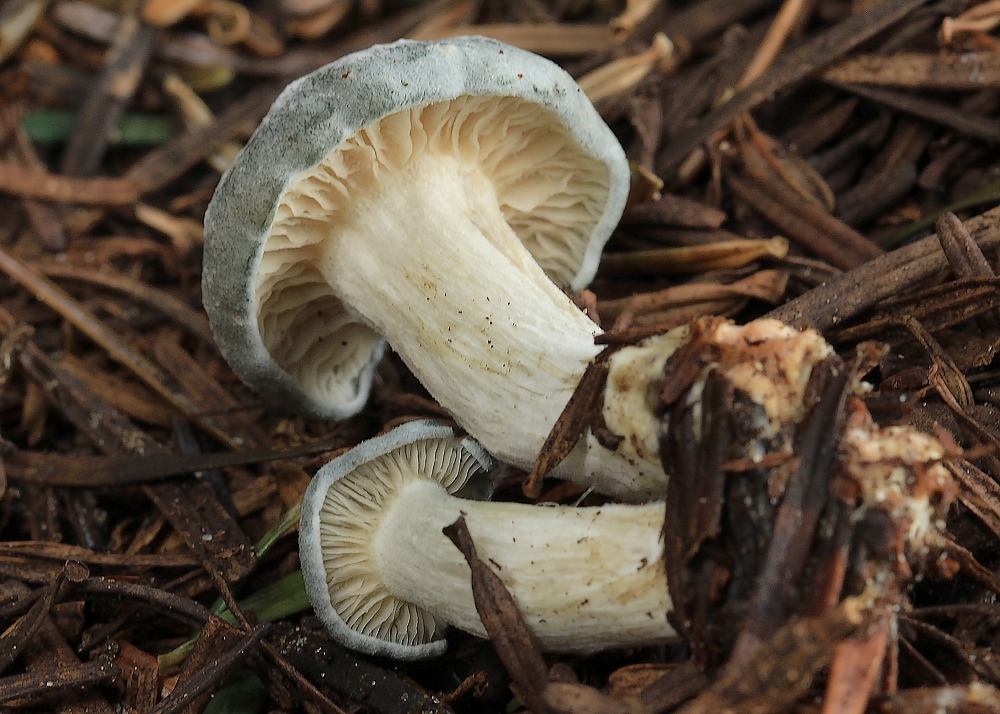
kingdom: Fungi
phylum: Basidiomycota
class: Agaricomycetes
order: Agaricales
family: Tricholomataceae
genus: Clitocybe
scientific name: Clitocybe odora
